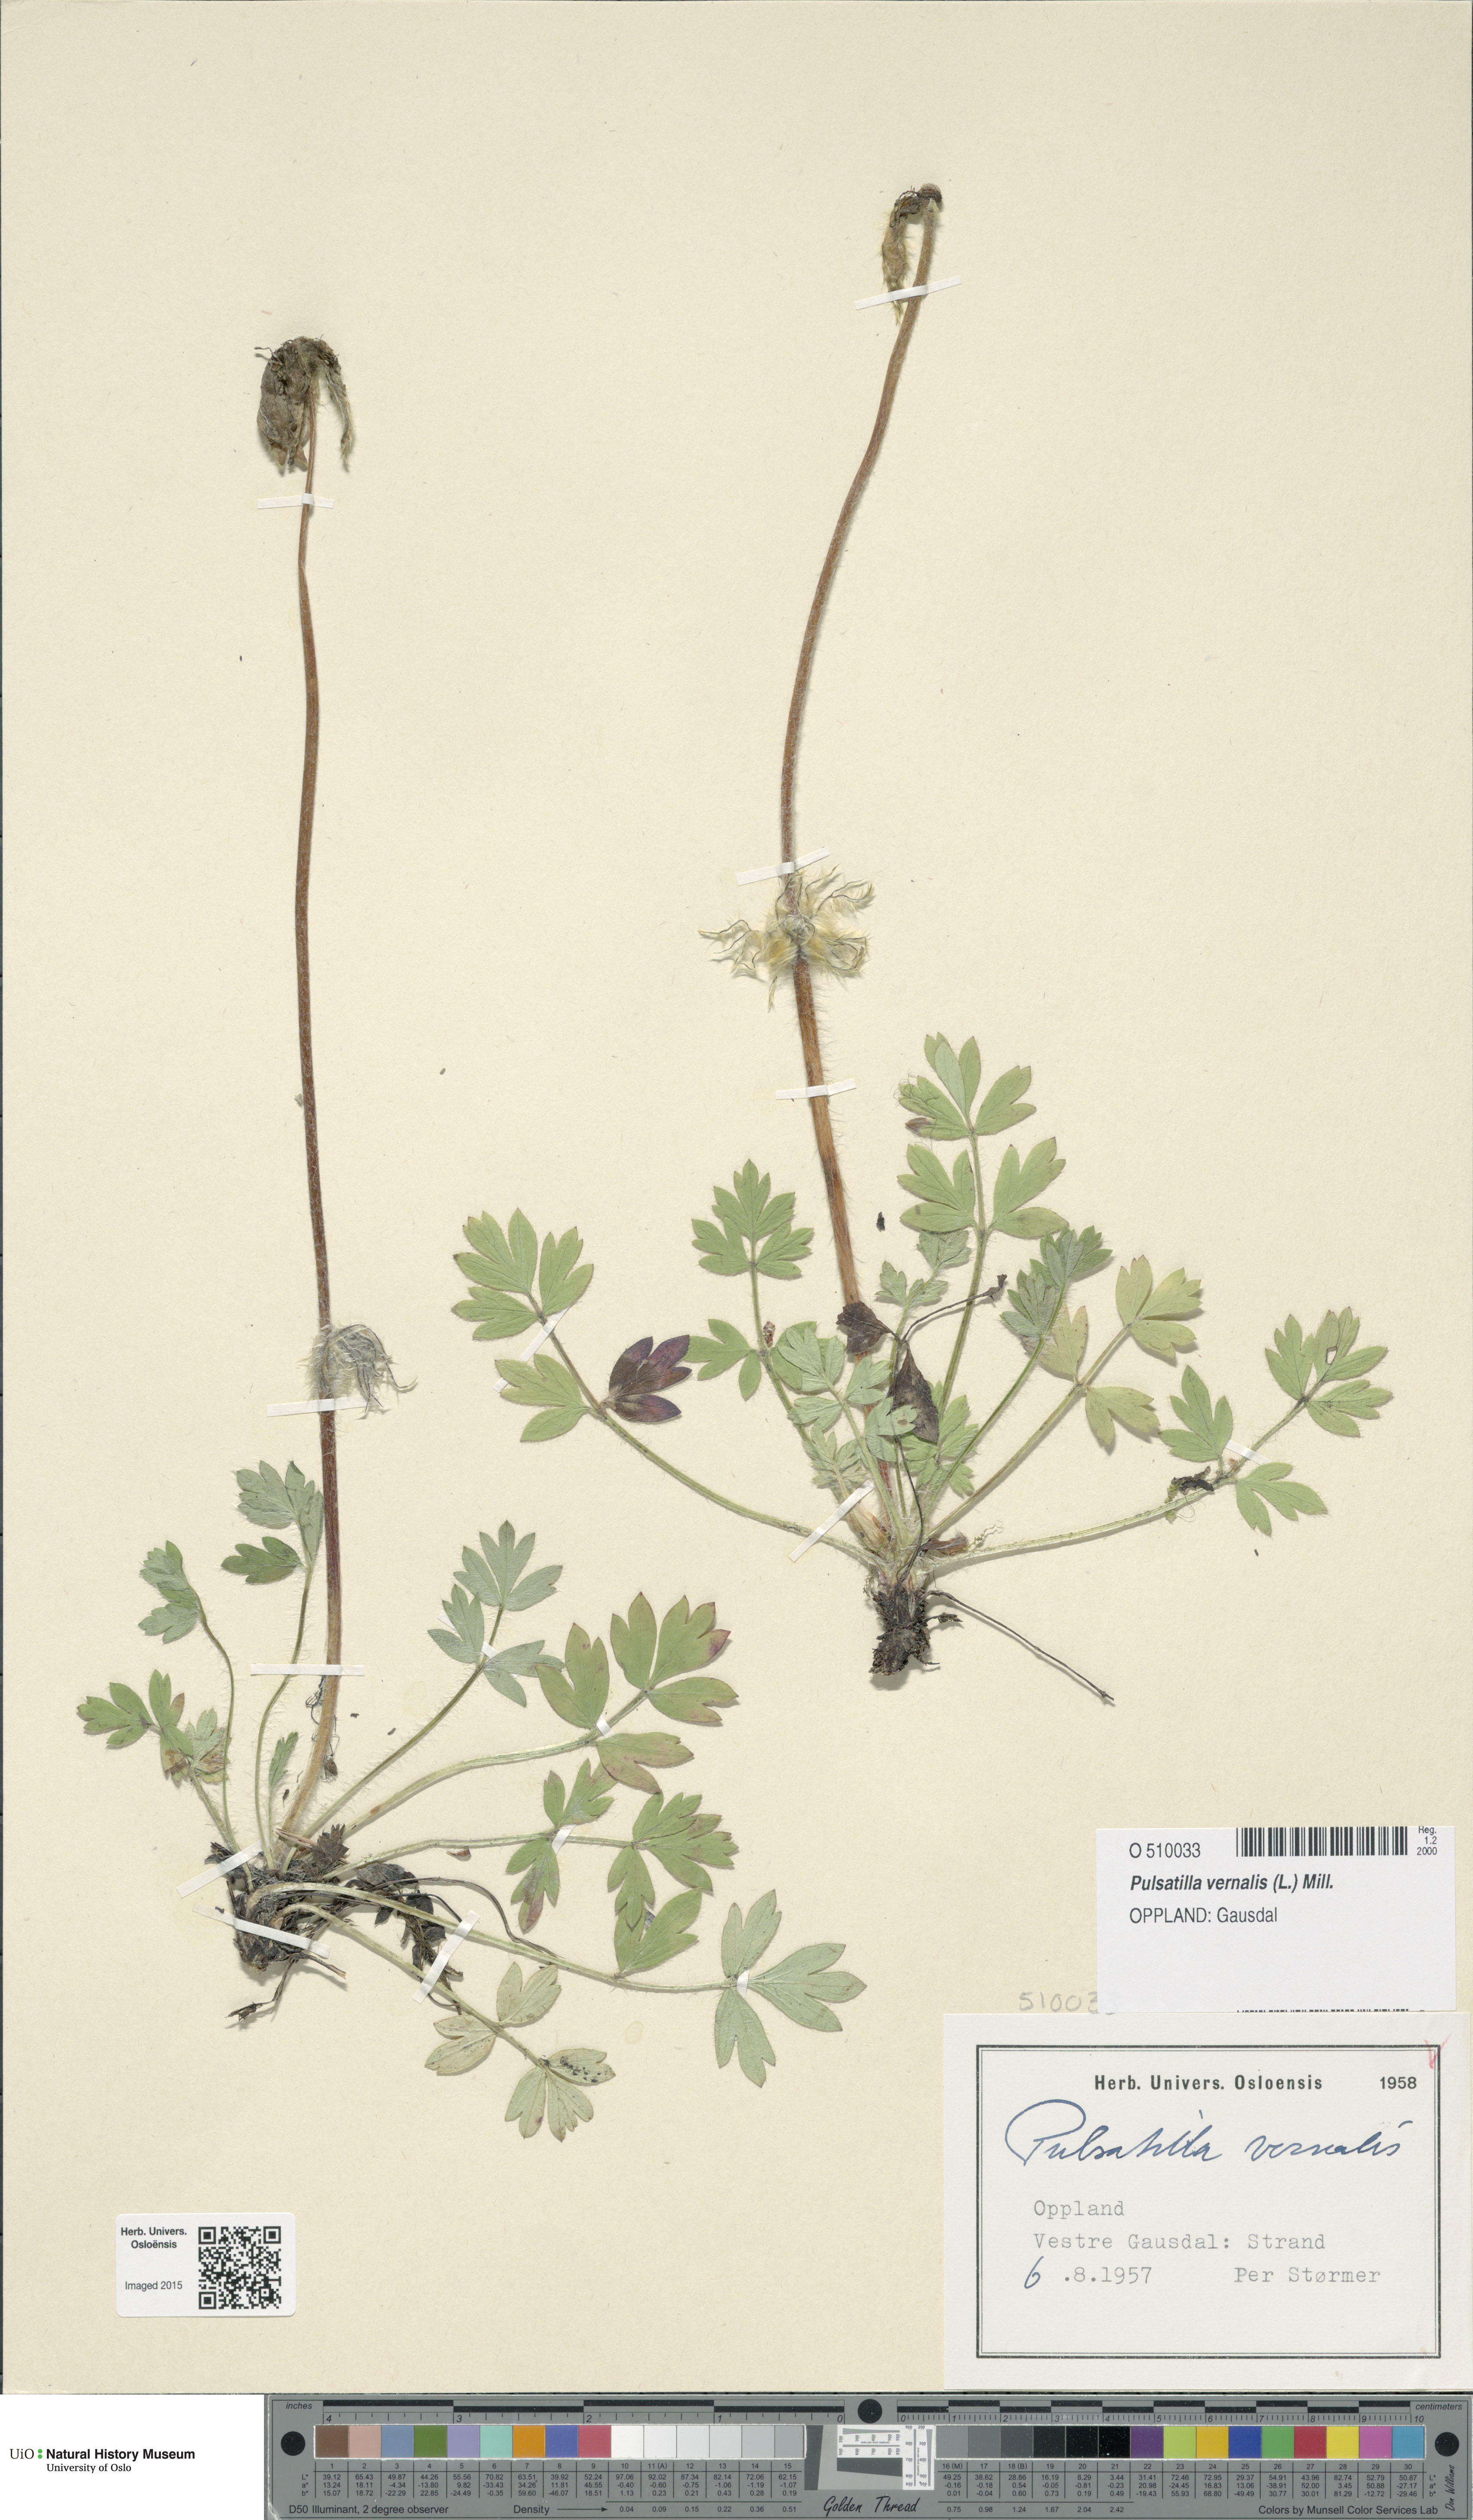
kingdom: Plantae
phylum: Tracheophyta
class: Magnoliopsida
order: Ranunculales
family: Ranunculaceae
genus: Pulsatilla
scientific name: Pulsatilla vernalis
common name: Spring pasque flower
